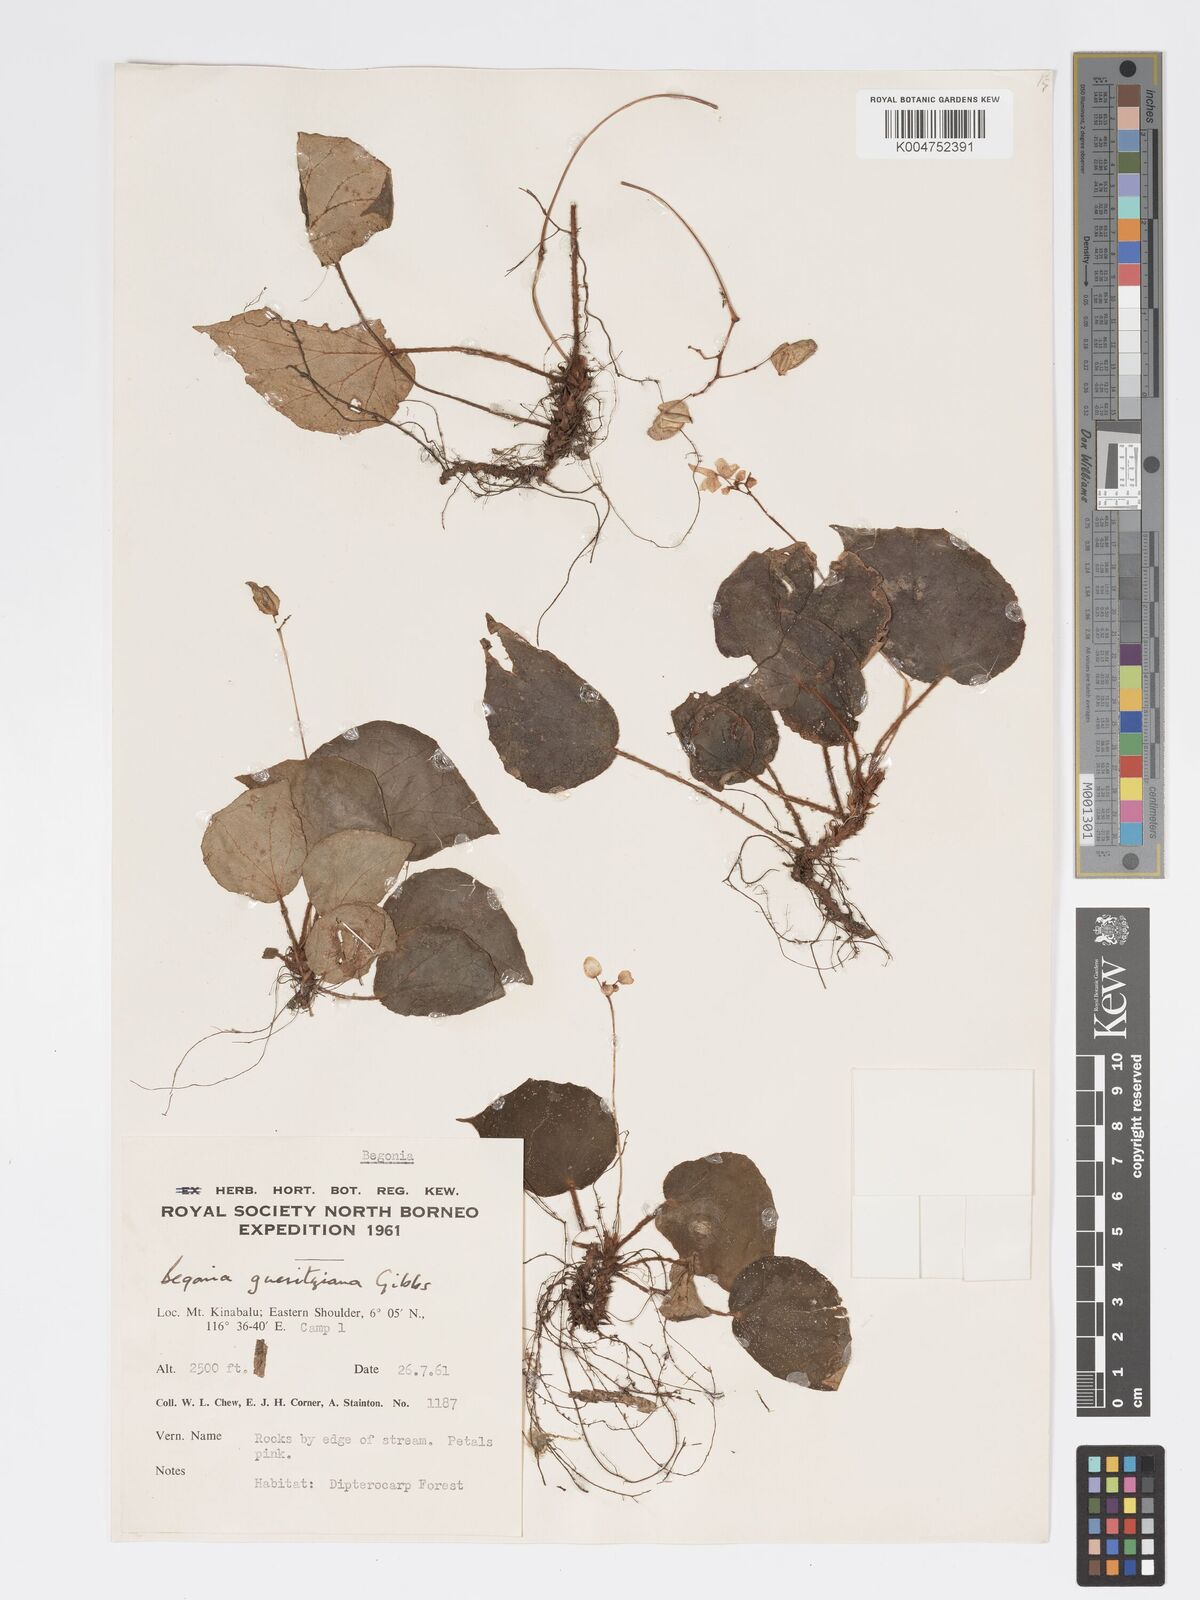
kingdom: Plantae
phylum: Tracheophyta
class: Magnoliopsida
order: Cucurbitales
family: Begoniaceae
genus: Begonia
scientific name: Begonia gueritziana
